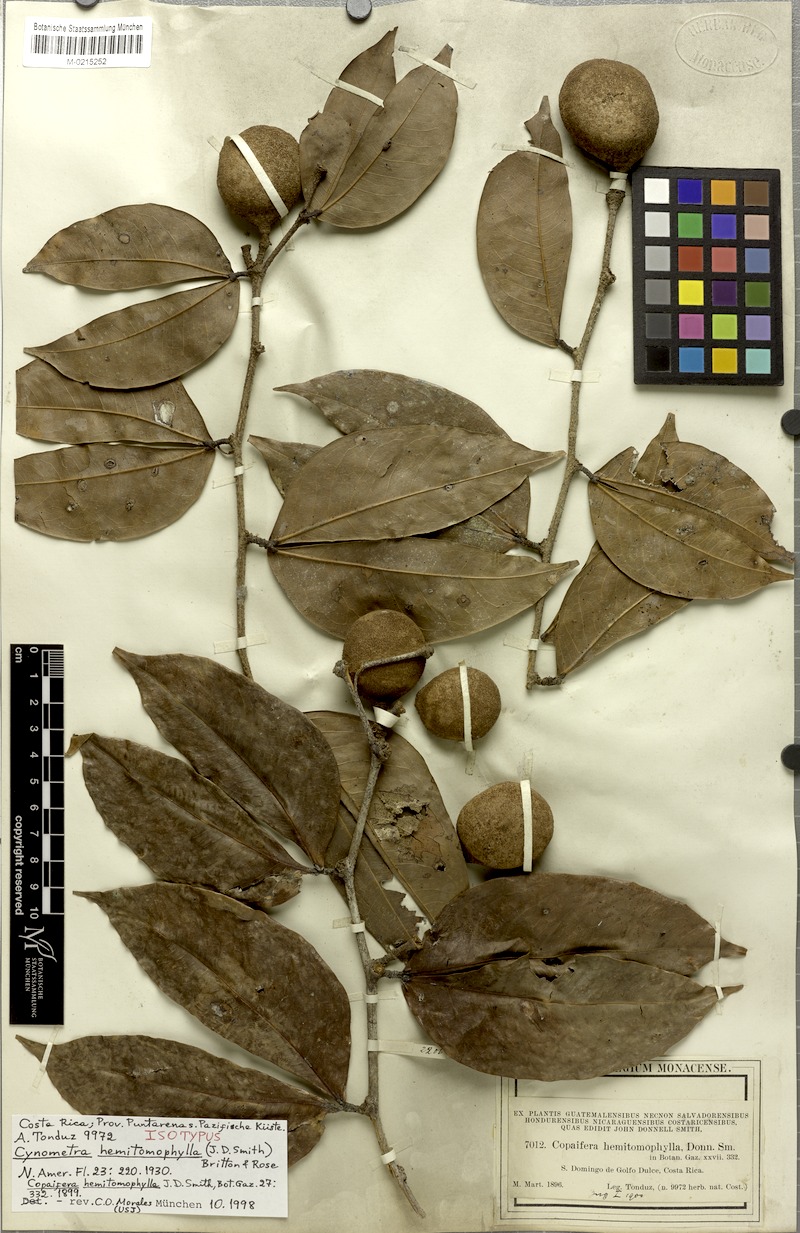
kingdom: Plantae
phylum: Tracheophyta
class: Magnoliopsida
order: Fabales
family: Fabaceae
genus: Cynometra
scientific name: Cynometra hemitomophylla
